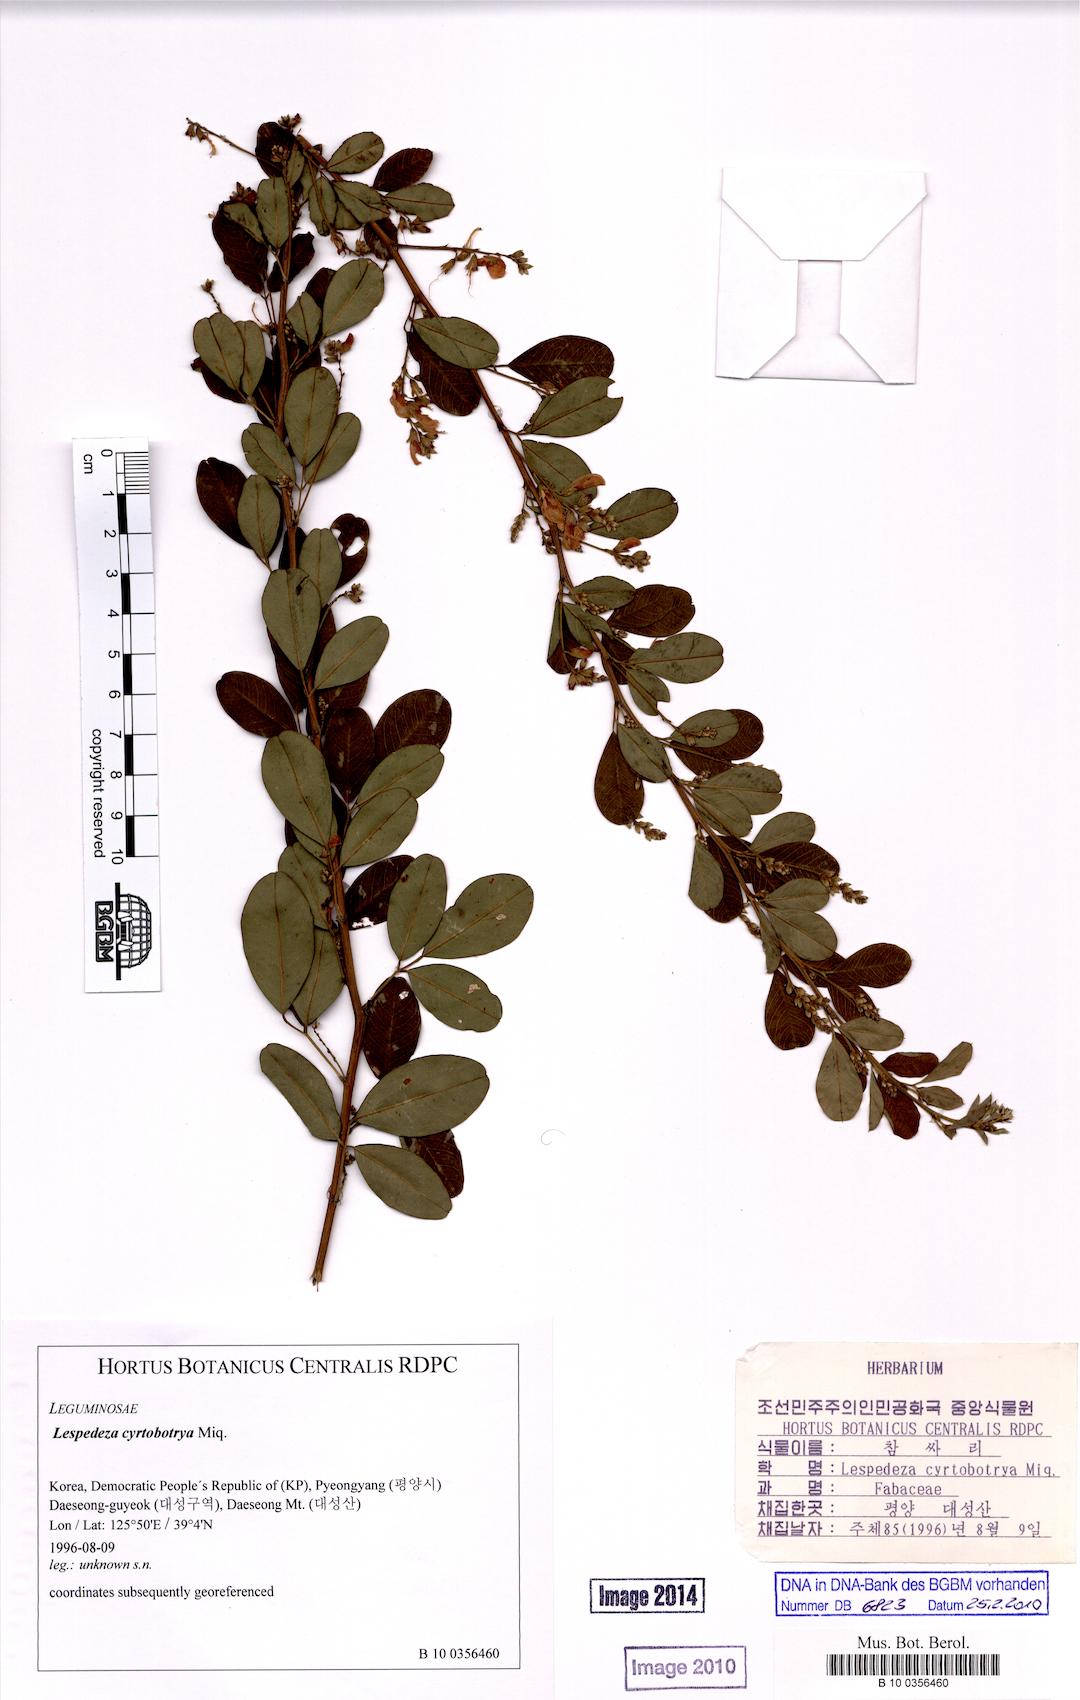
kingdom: Plantae
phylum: Tracheophyta
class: Magnoliopsida
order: Fabales
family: Fabaceae
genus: Lespedeza
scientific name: Lespedeza cyrtobotrya
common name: Leafy lespedeza
